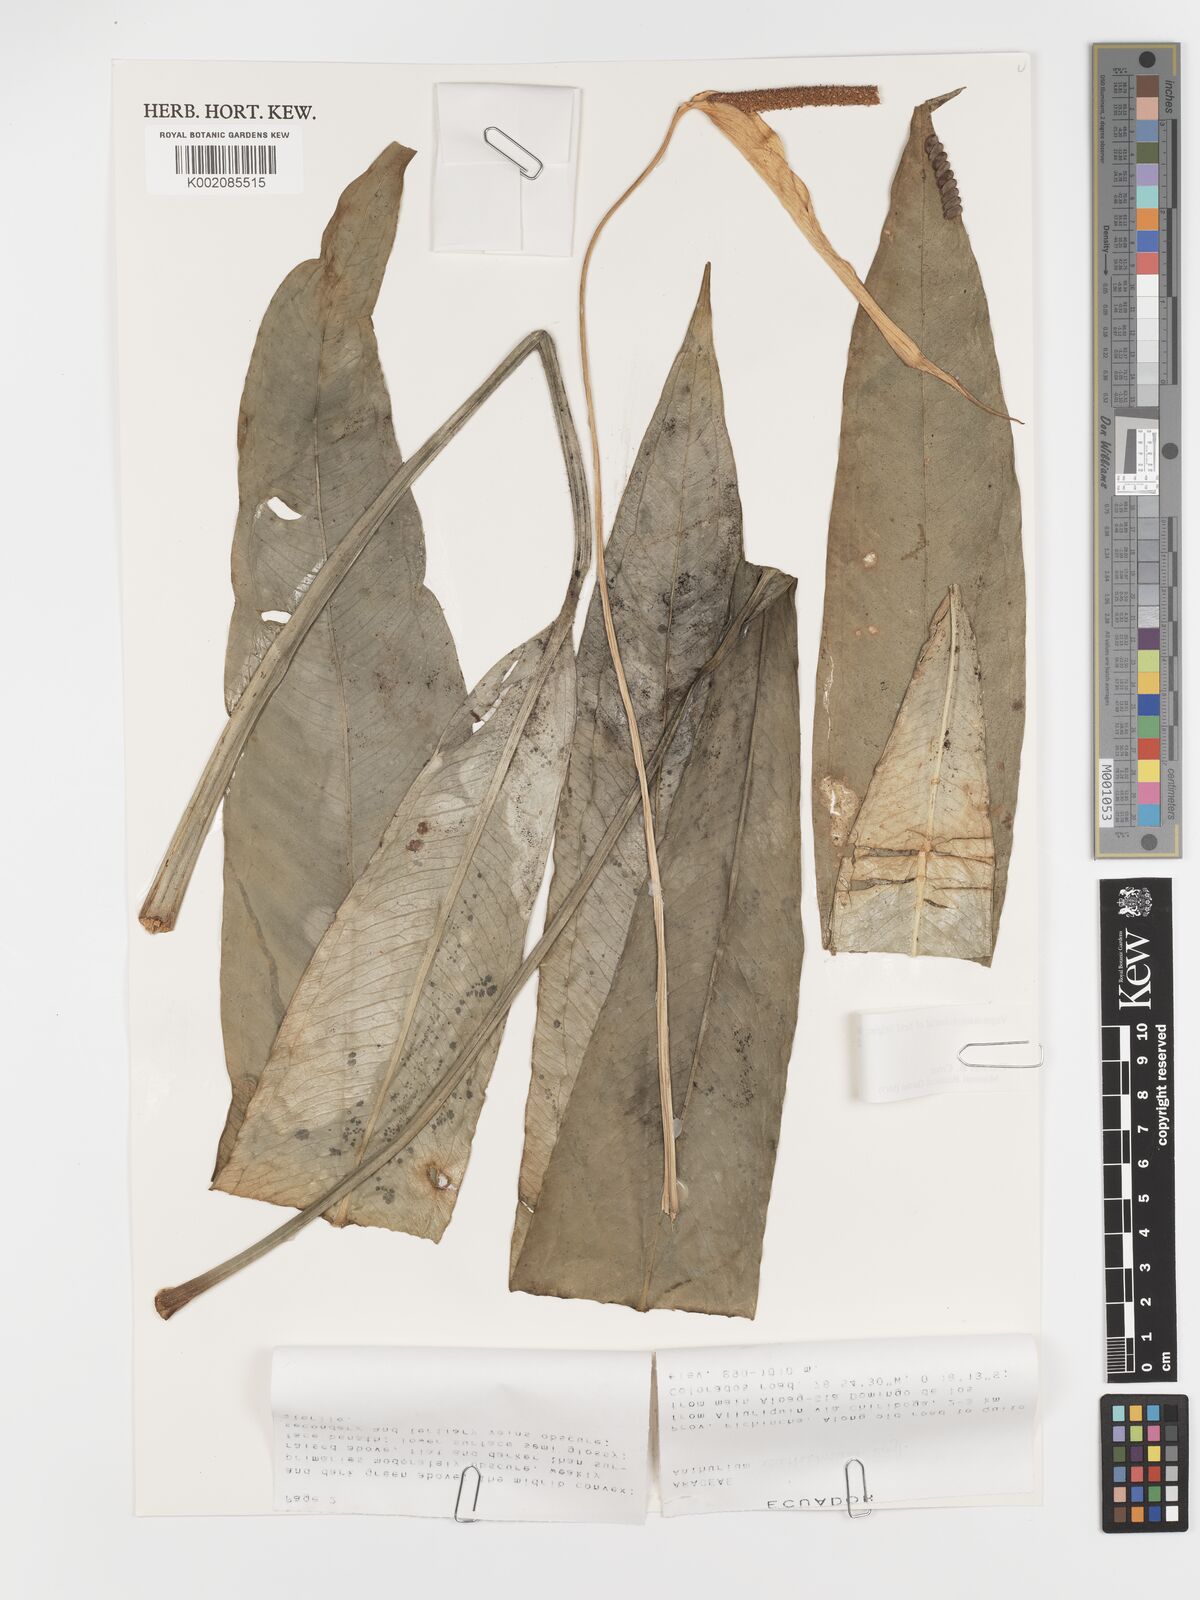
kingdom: Plantae
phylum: Tracheophyta
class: Liliopsida
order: Alismatales
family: Araceae
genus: Anthurium
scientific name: Anthurium acutissimum
